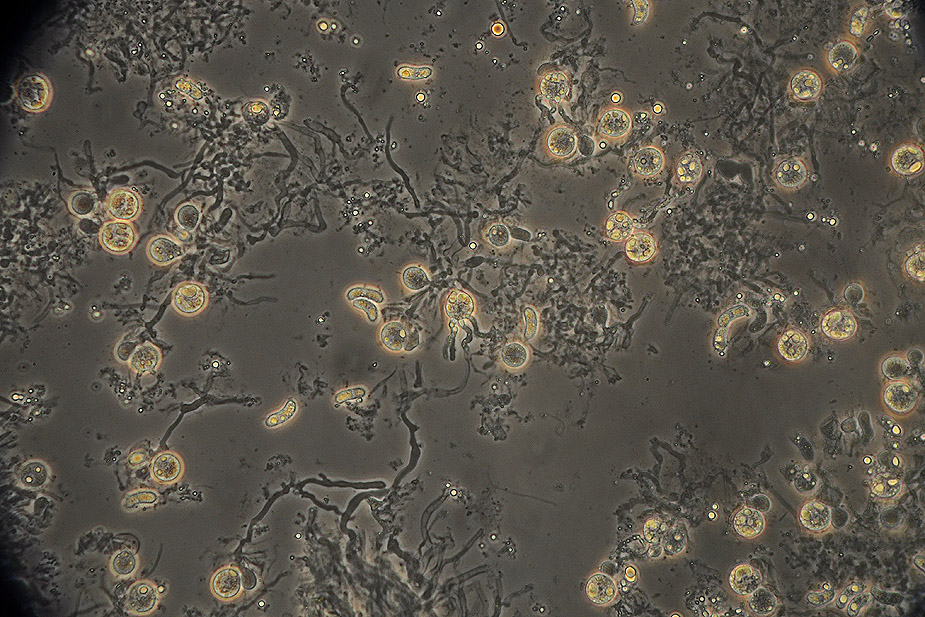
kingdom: Fungi
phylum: Basidiomycota
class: Agaricomycetes
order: Sebacinales
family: Sebacinaceae
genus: Sebacina
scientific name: Sebacina grisea
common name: blågrå bævrehinde
